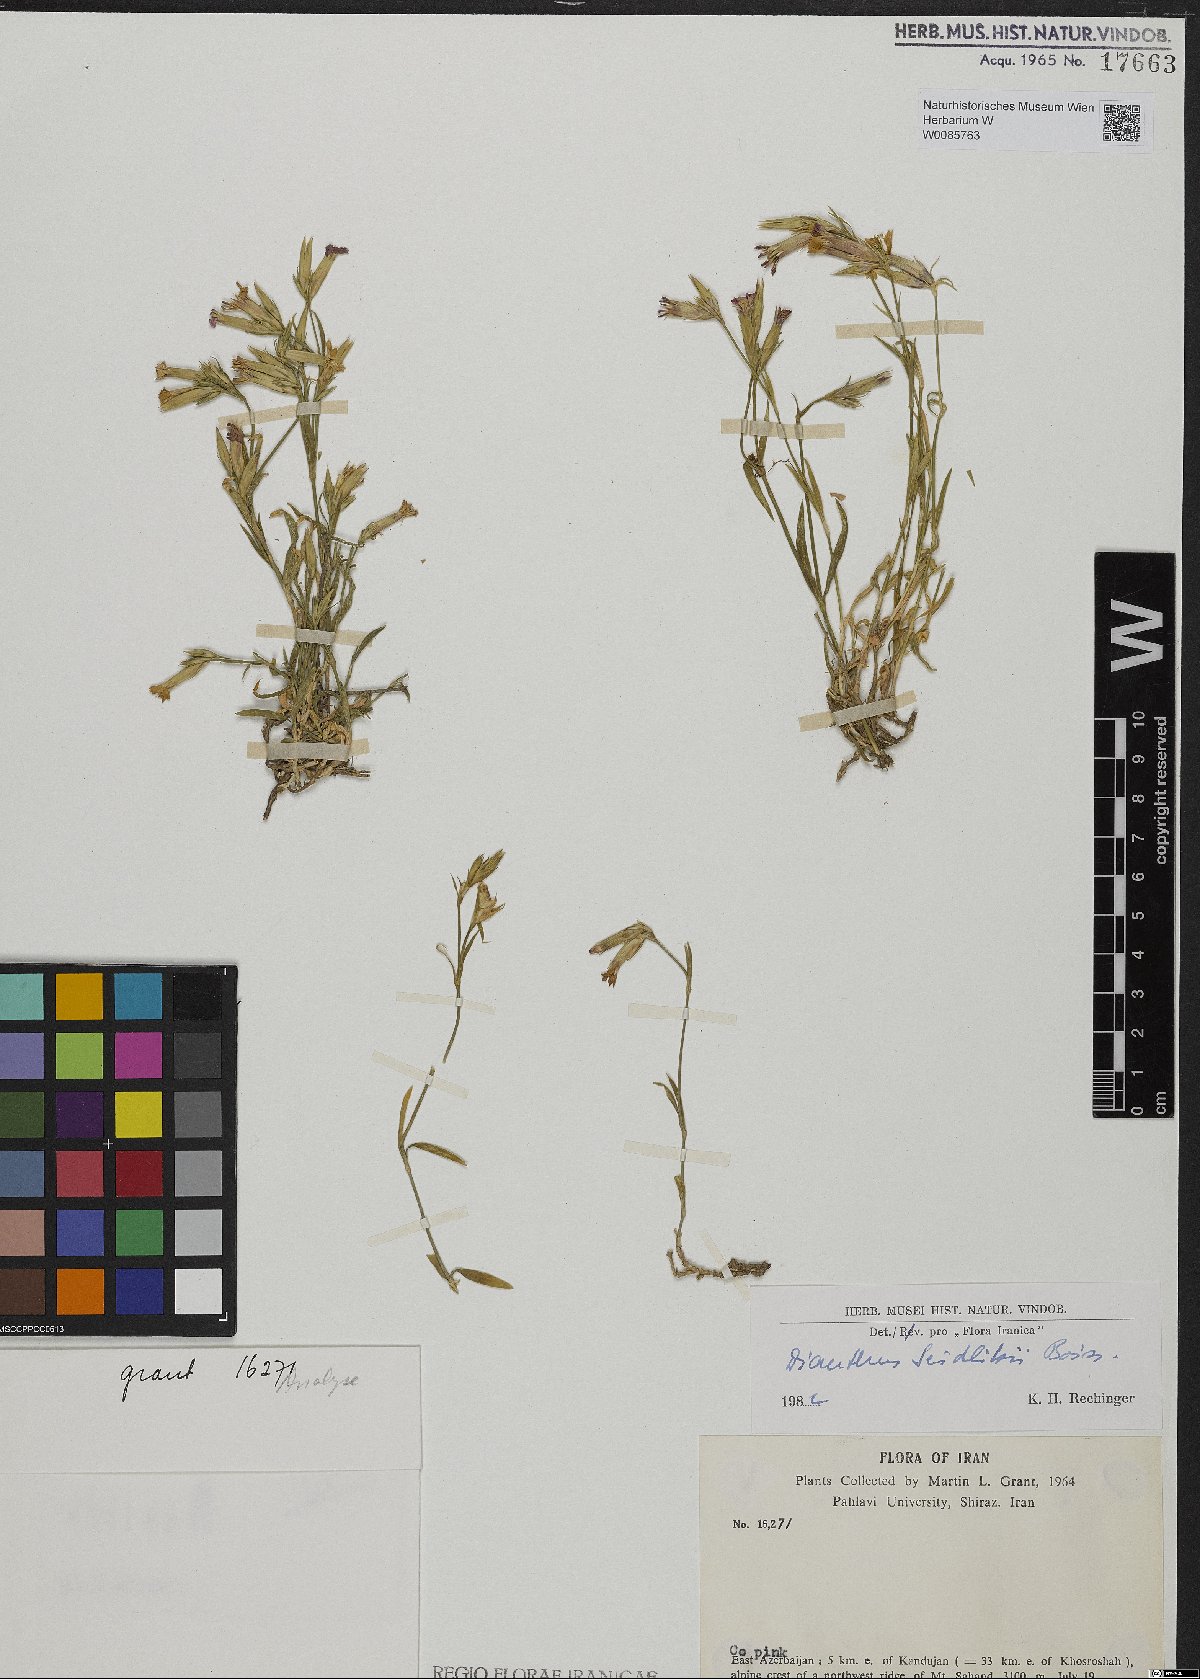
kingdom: Plantae
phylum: Tracheophyta
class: Magnoliopsida
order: Caryophyllales
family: Caryophyllaceae
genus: Dianthus
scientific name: Dianthus seidlitzii
